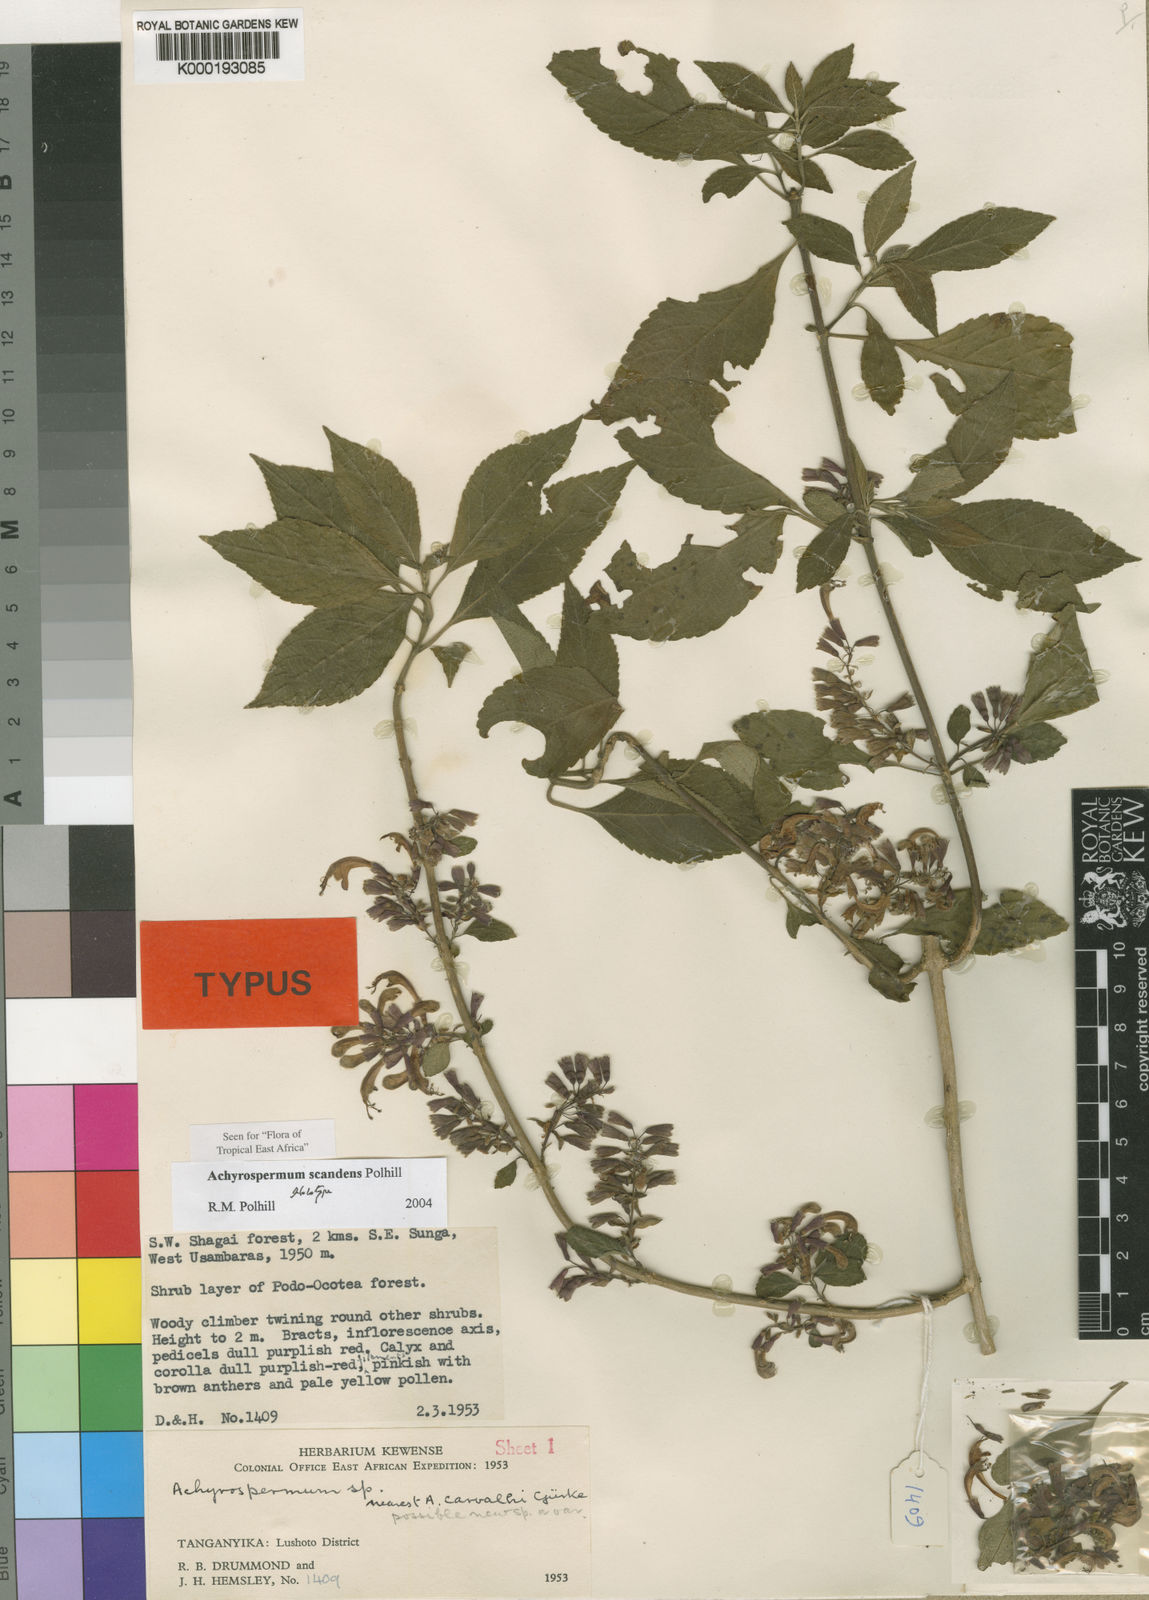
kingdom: Plantae
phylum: Tracheophyta
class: Magnoliopsida
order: Lamiales
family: Lamiaceae
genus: Achyrospermum
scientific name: Achyrospermum scandens
